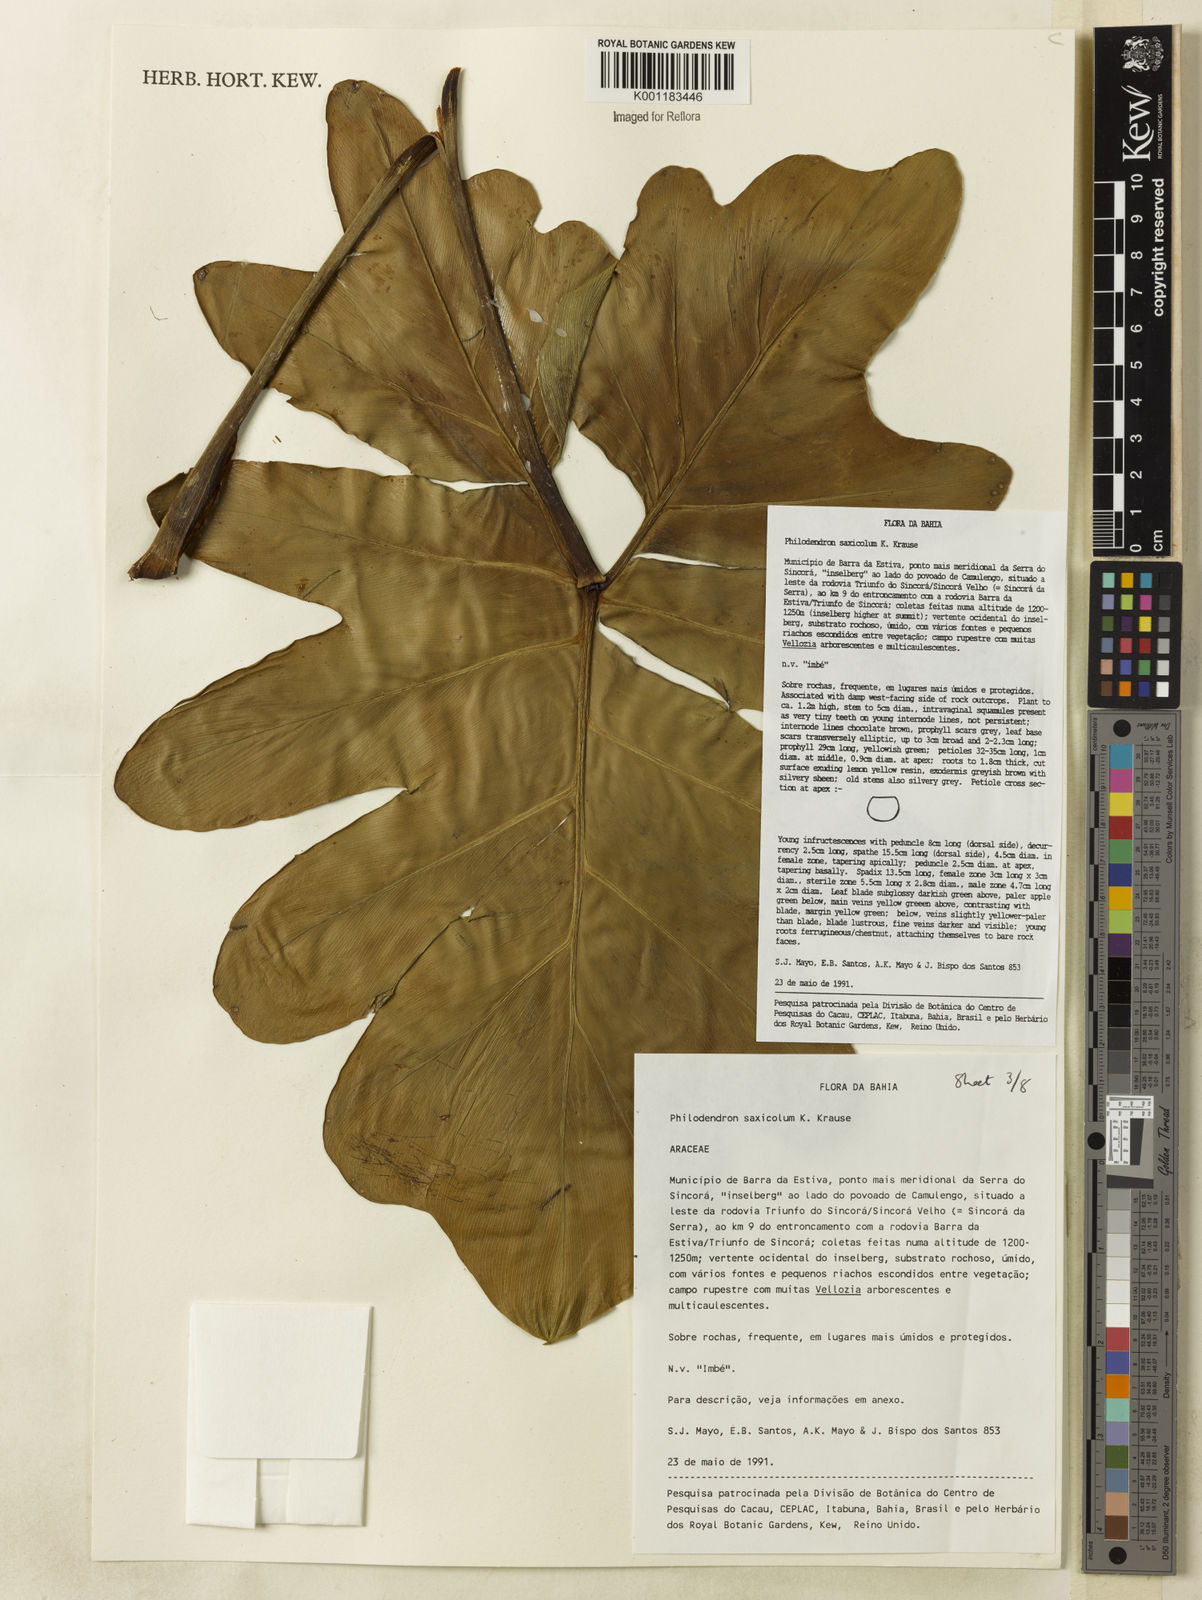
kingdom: Plantae
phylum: Tracheophyta
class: Liliopsida
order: Alismatales
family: Araceae
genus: Thaumatophyllum
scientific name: Thaumatophyllum saxicola
